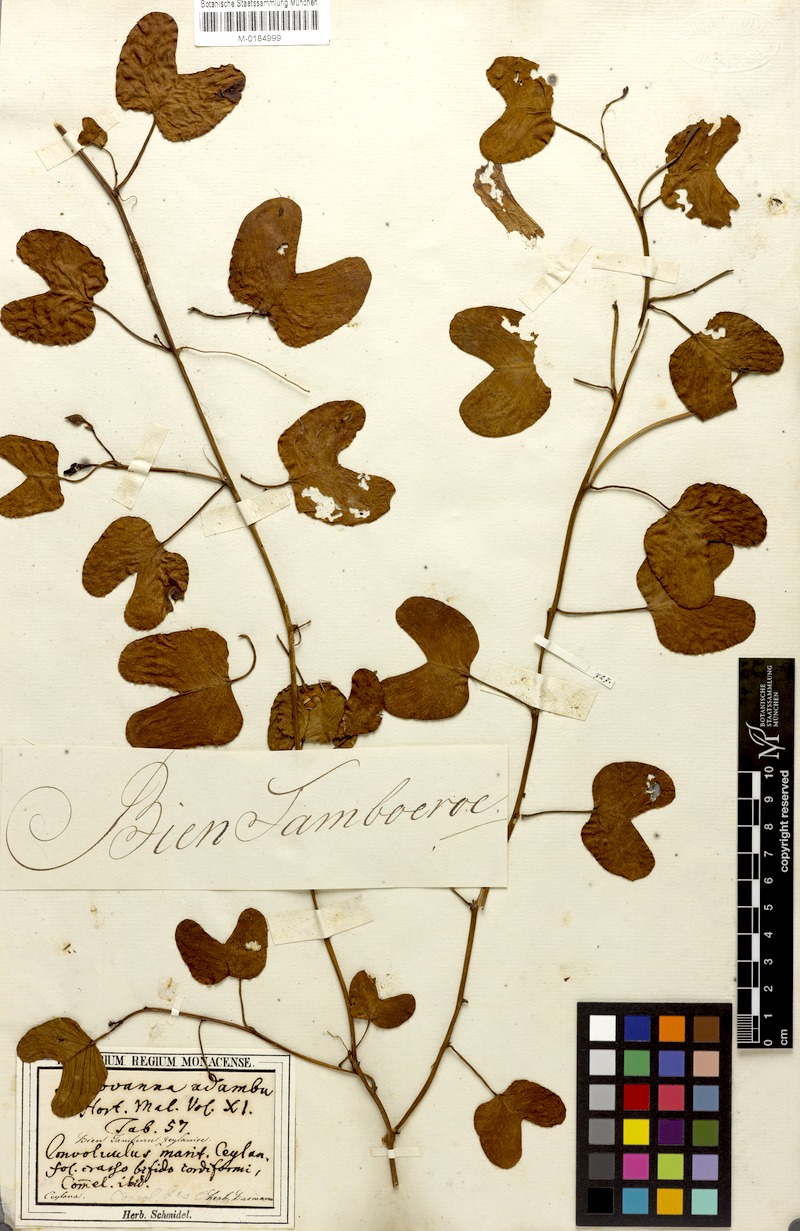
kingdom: Plantae
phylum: Tracheophyta
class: Magnoliopsida
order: Solanales
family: Convolvulaceae
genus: Ipomoea
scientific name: Ipomoea pes-caprae
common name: Beach morning glory
